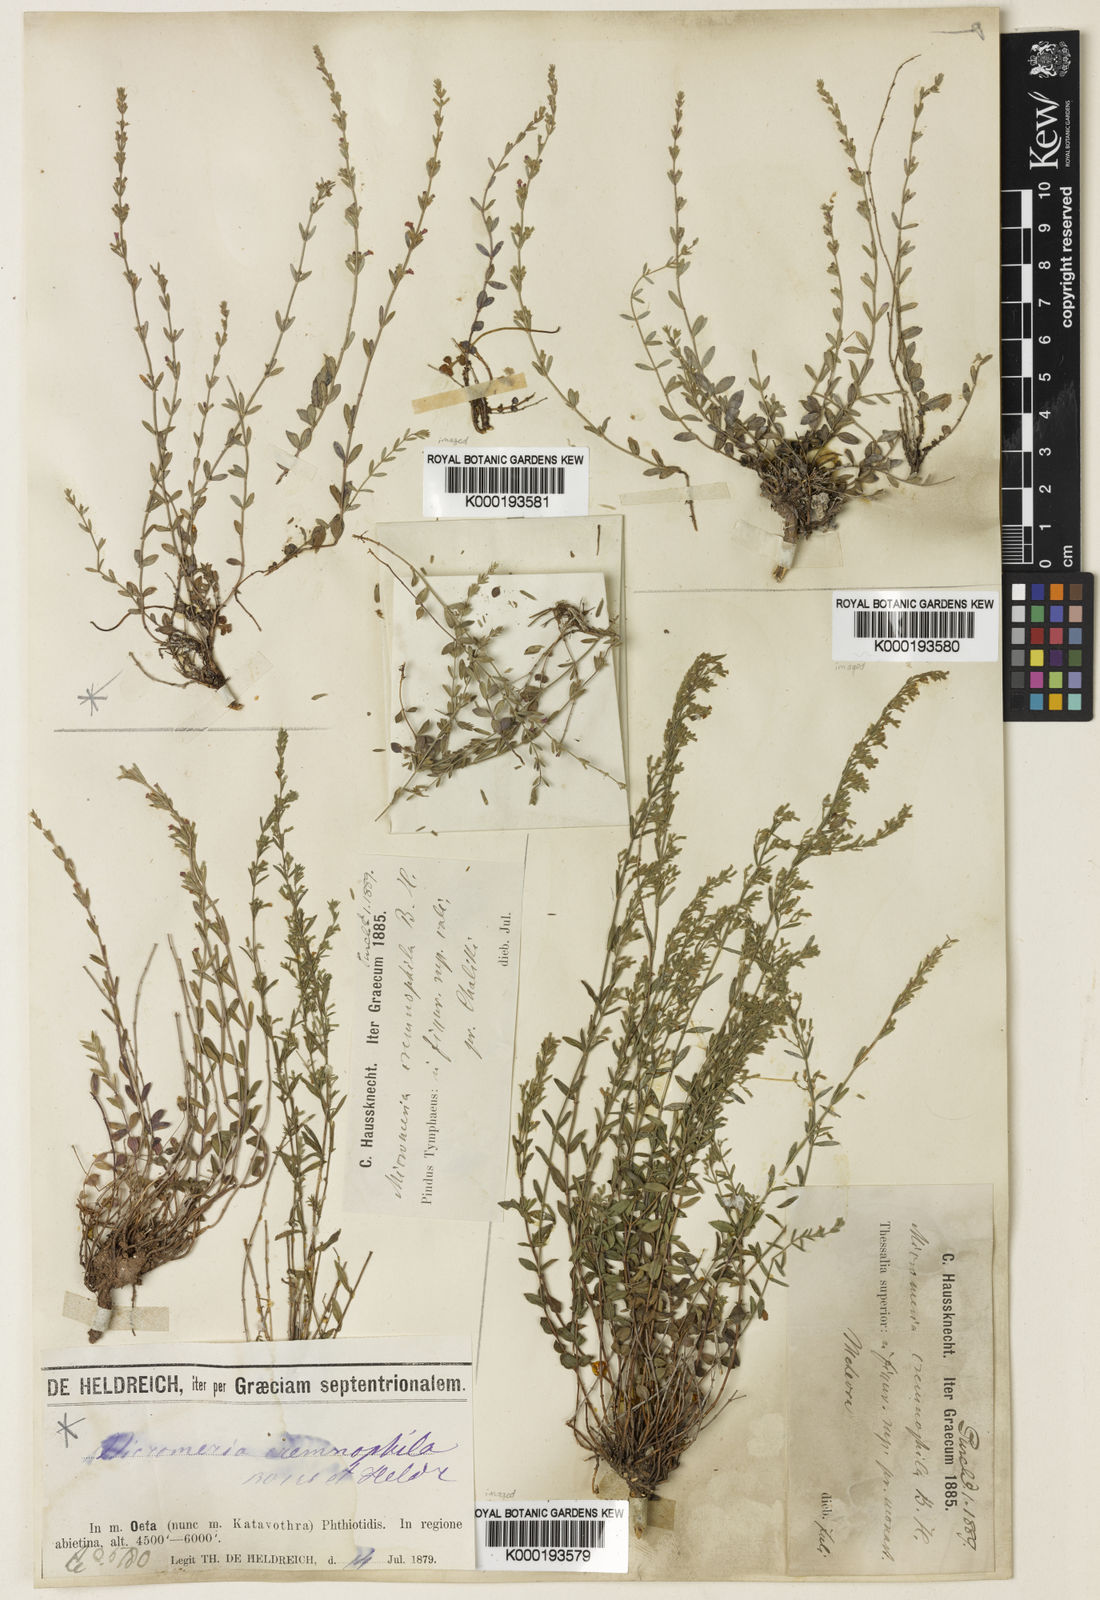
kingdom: Plantae
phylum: Tracheophyta
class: Magnoliopsida
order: Lamiales
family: Lamiaceae
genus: Micromeria
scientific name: Micromeria cremnophila
